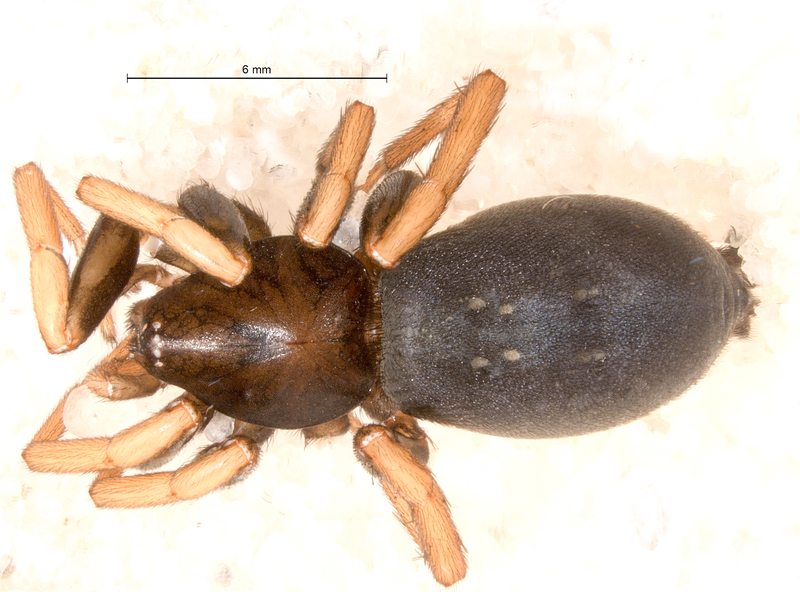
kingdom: Animalia
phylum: Arthropoda
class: Arachnida
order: Araneae
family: Gnaphosidae
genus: Trachyzelotes
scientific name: Trachyzelotes pedestris
